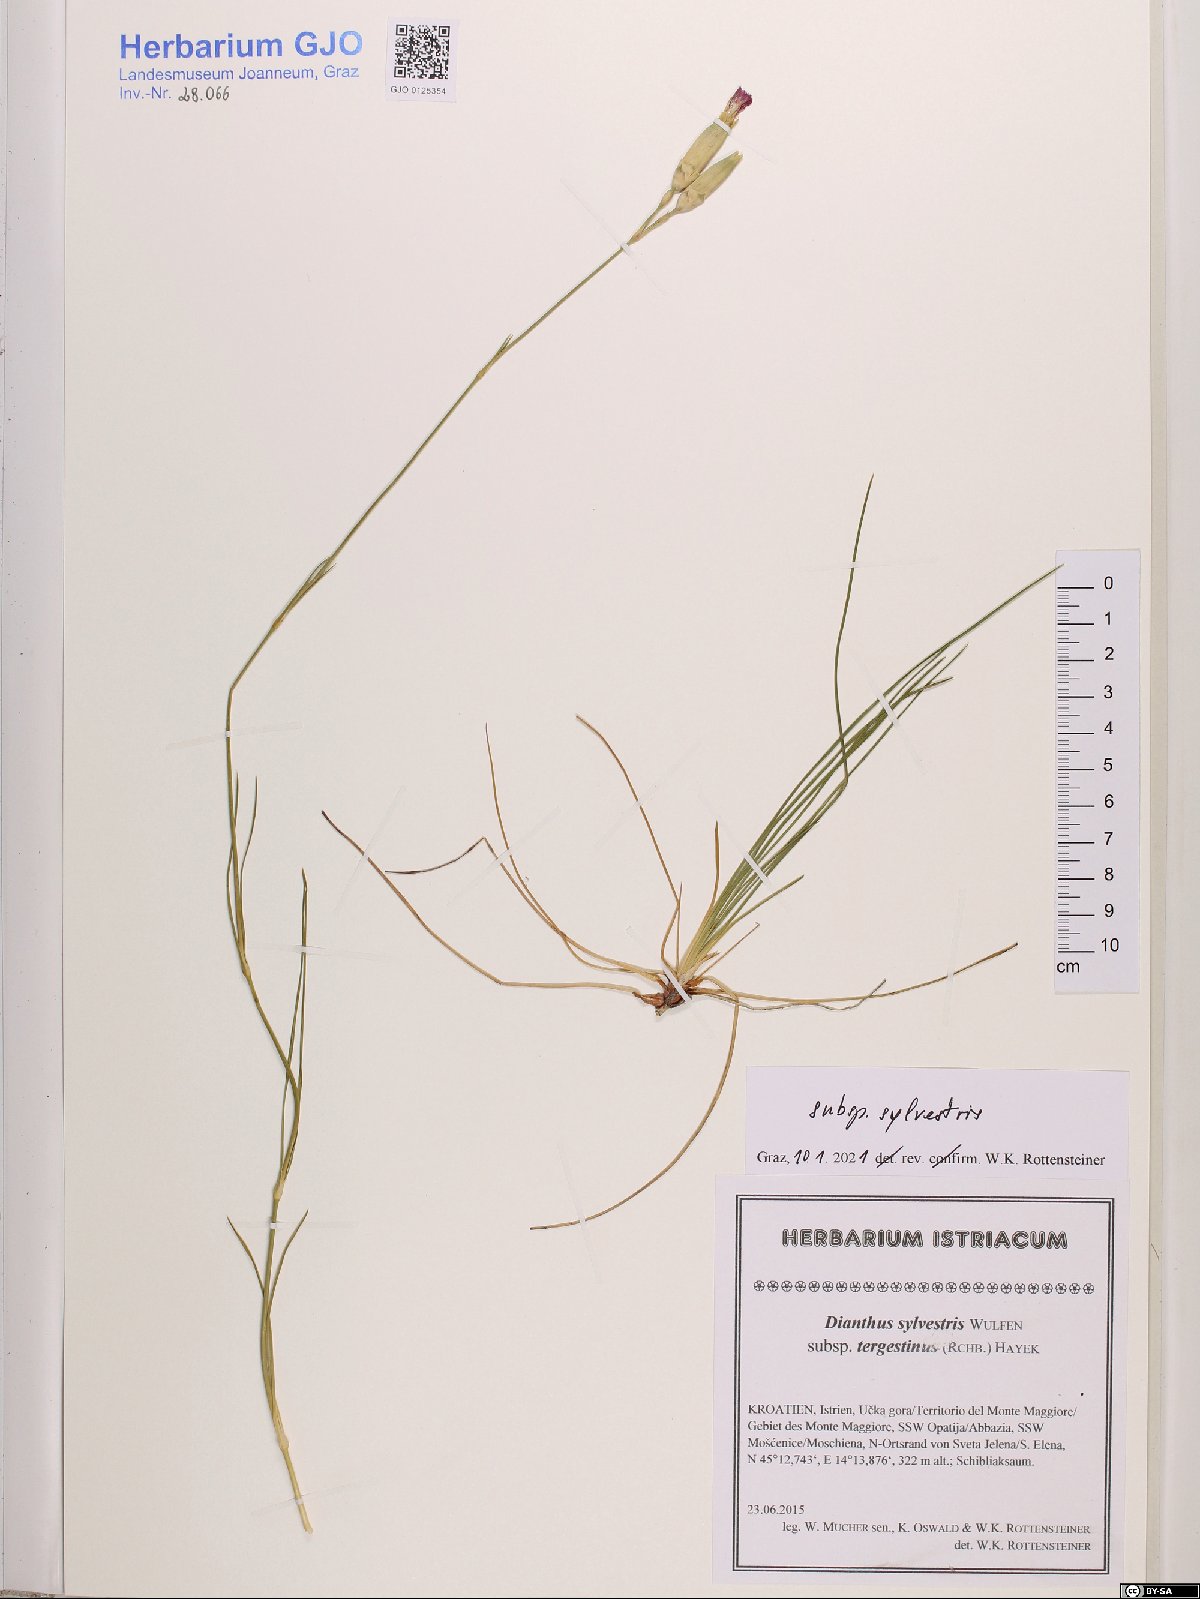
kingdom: Plantae
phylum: Tracheophyta
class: Magnoliopsida
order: Caryophyllales
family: Caryophyllaceae
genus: Dianthus
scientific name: Dianthus sylvestris
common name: Wood pink
